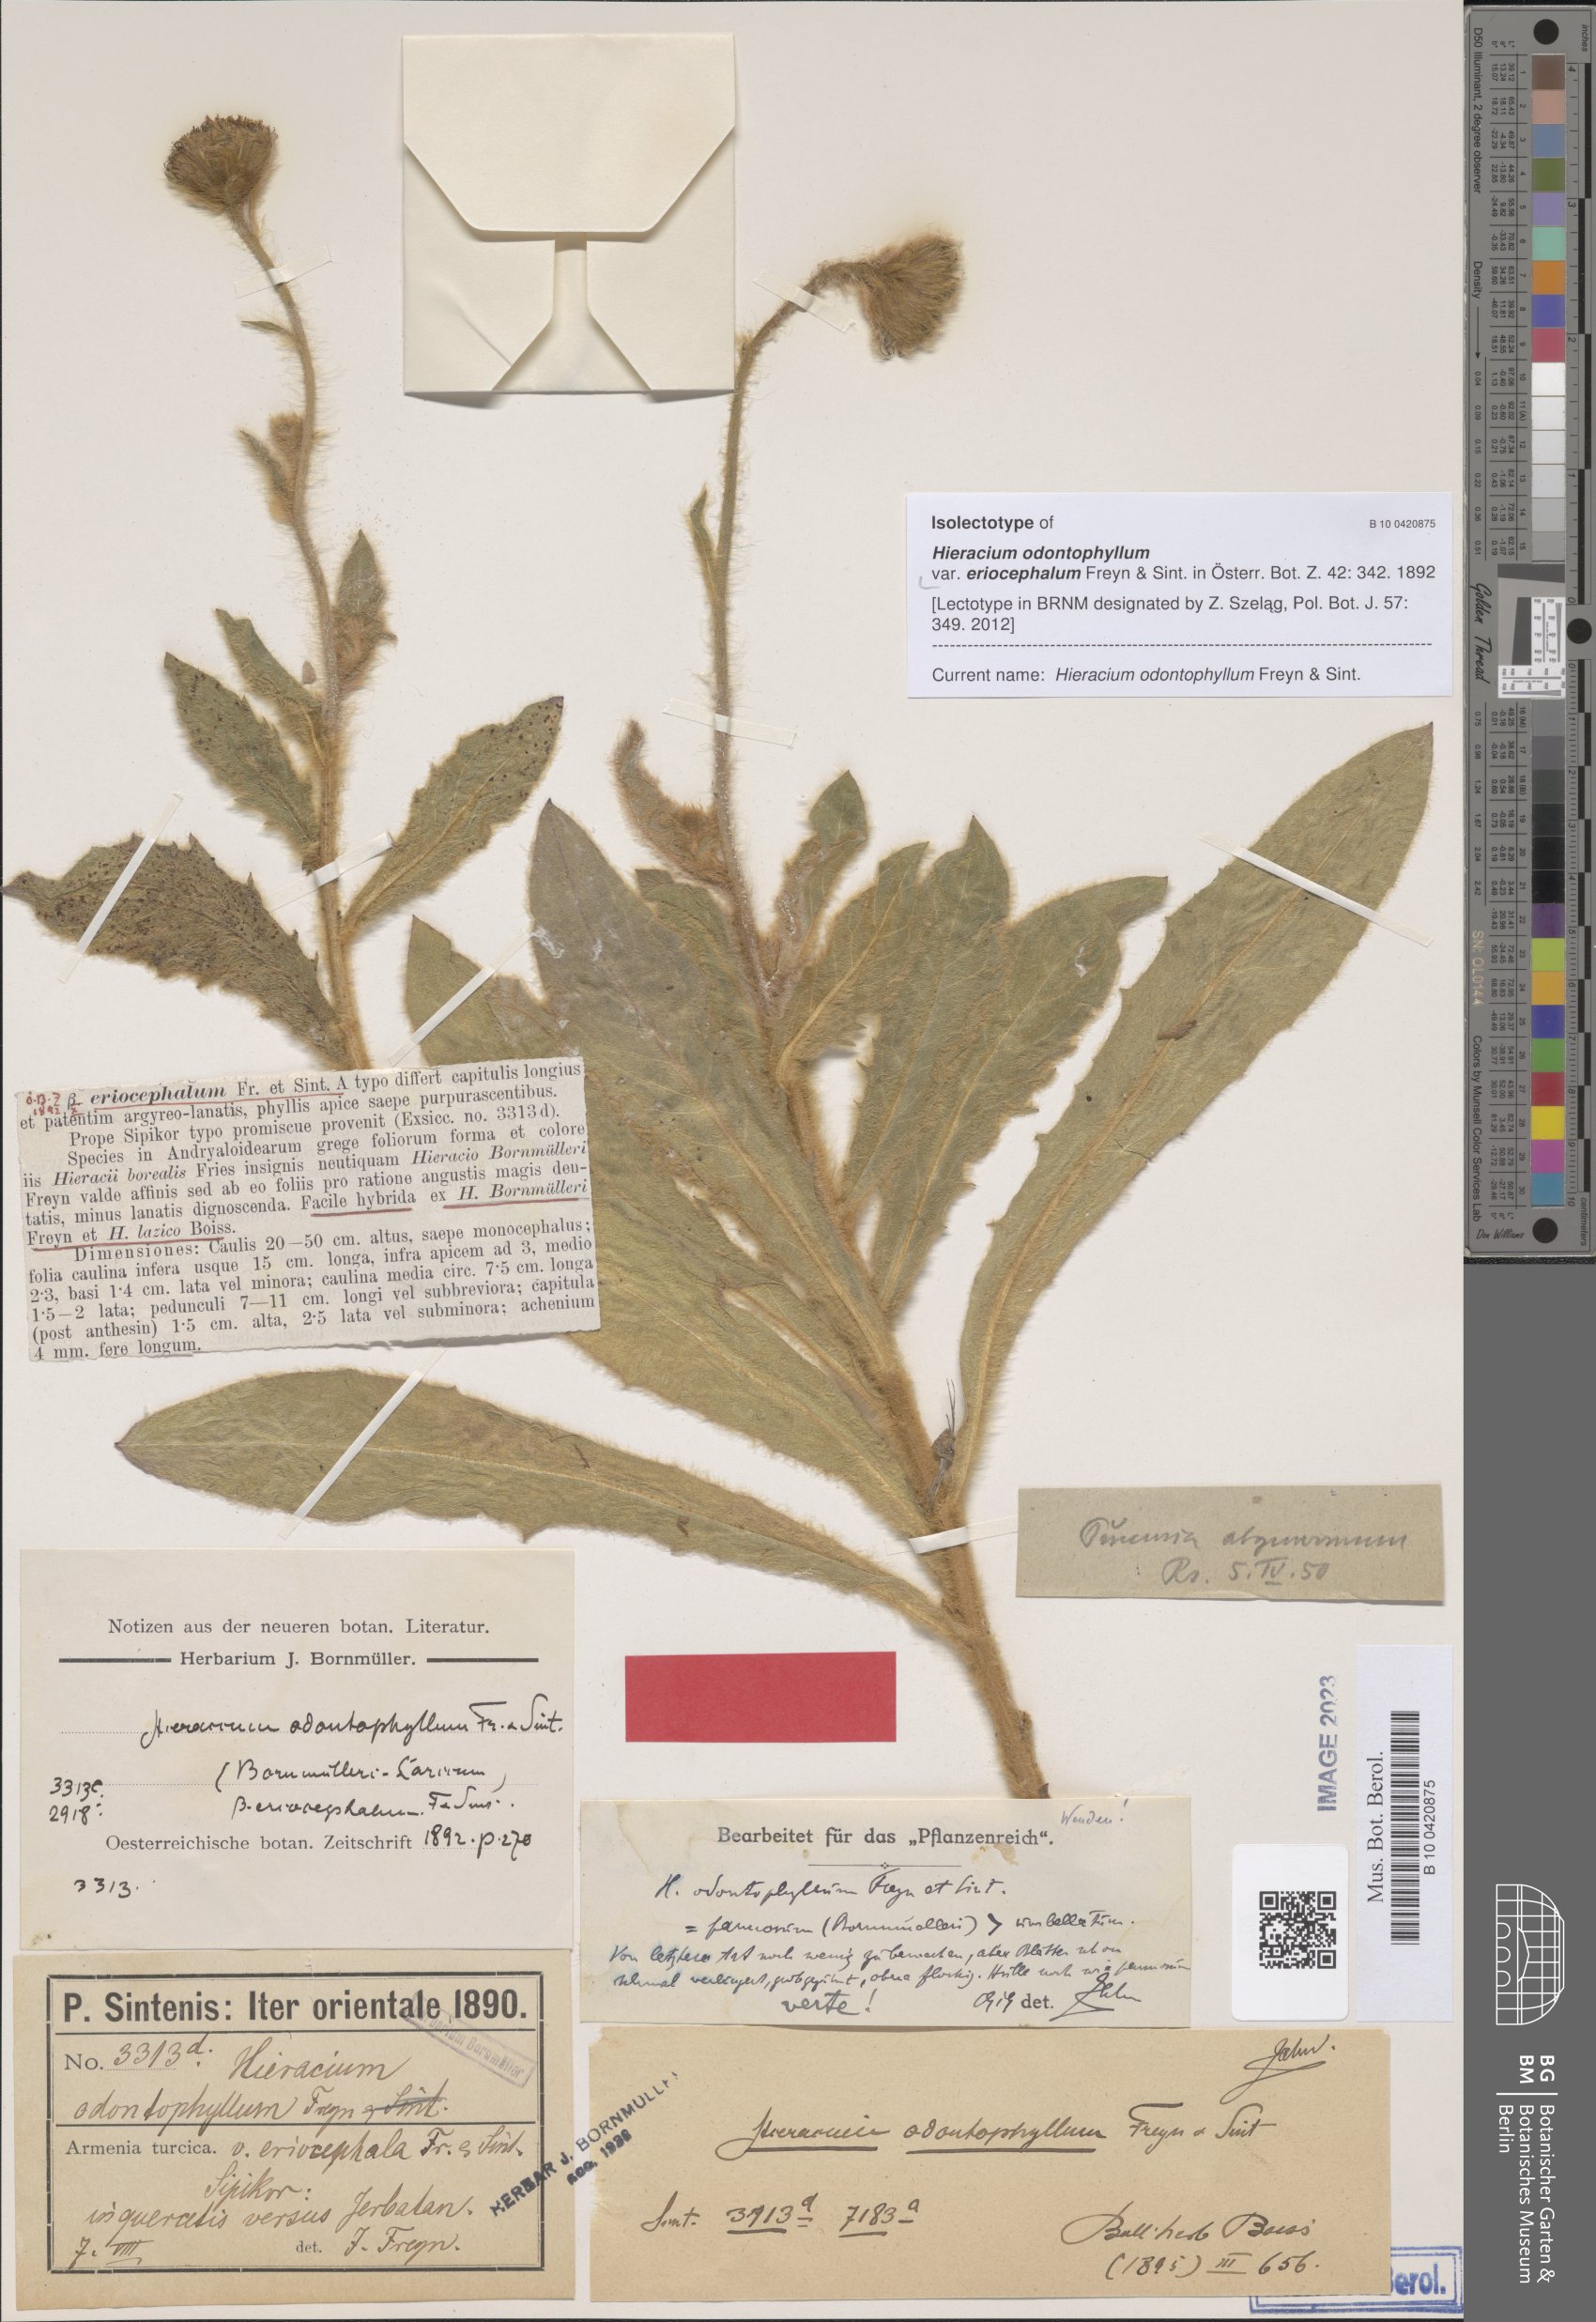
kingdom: Plantae
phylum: Tracheophyta
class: Magnoliopsida
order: Asterales
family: Asteraceae
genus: Hieracium
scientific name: Hieracium odontophyllum
